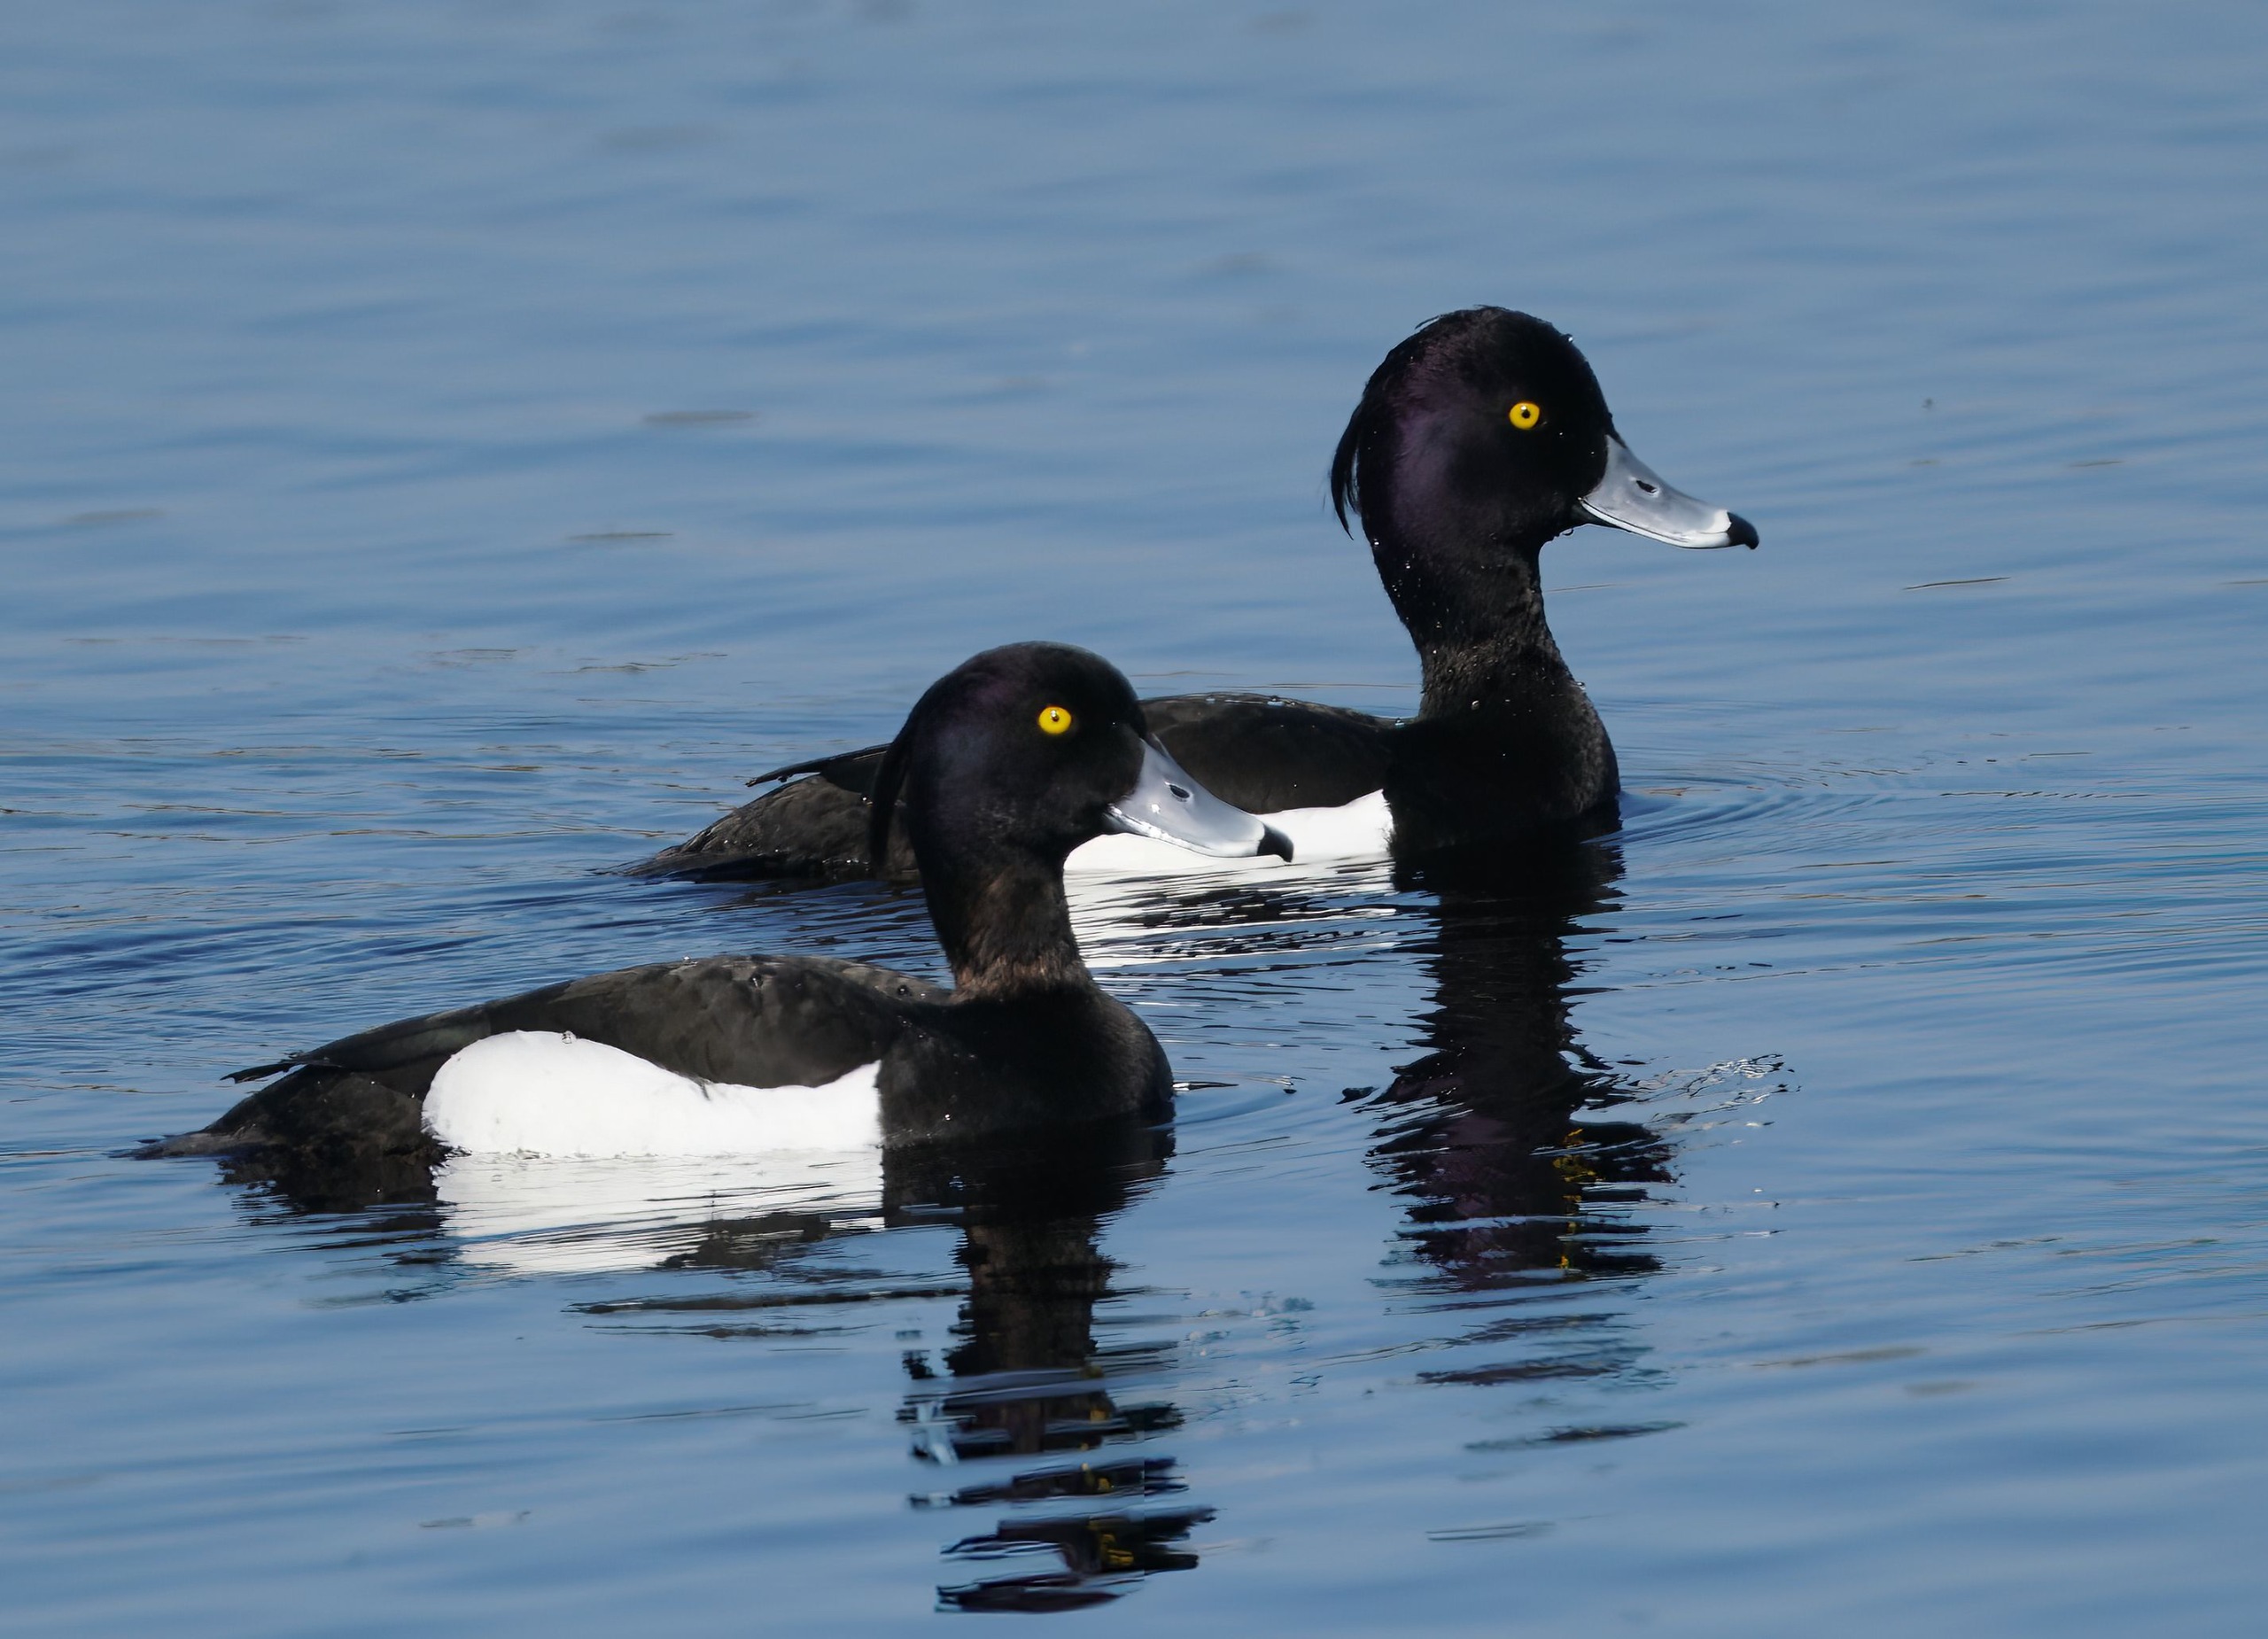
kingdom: Animalia
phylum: Chordata
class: Aves
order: Anseriformes
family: Anatidae
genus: Aythya
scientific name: Aythya fuligula
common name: Troldand
